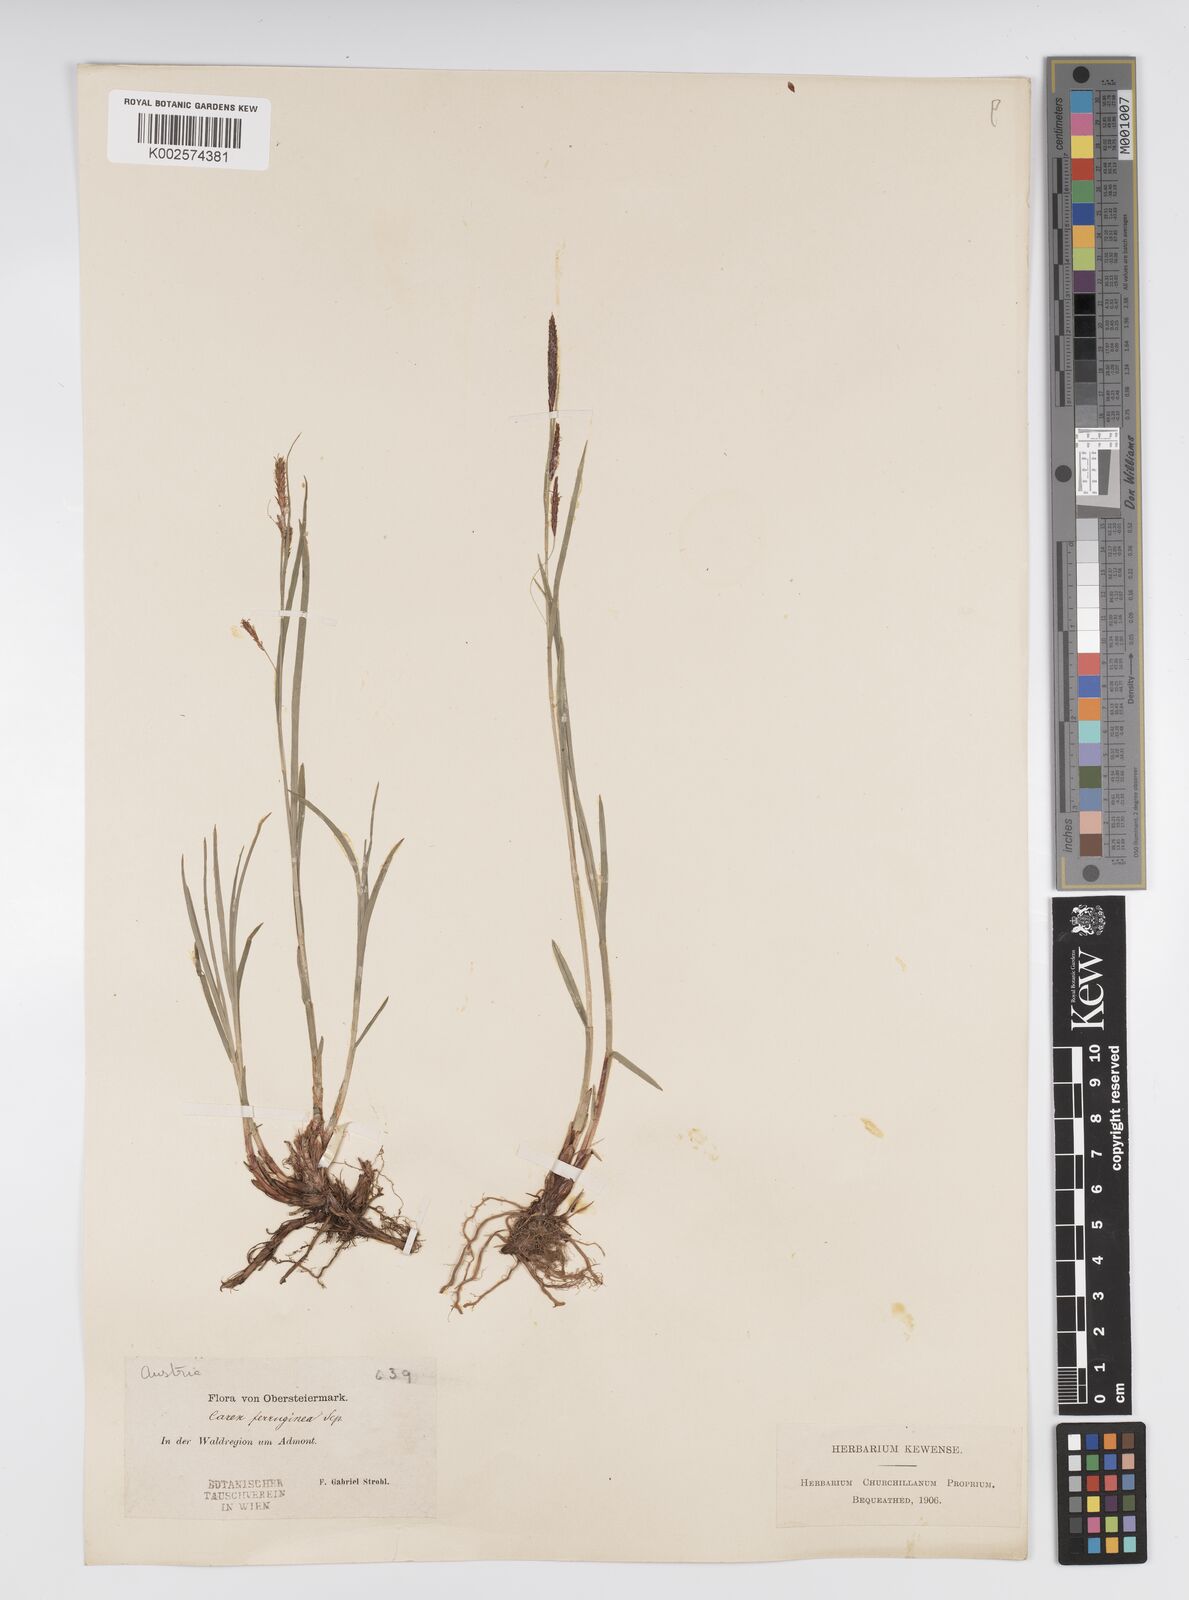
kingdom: Plantae
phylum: Tracheophyta
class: Liliopsida
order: Poales
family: Cyperaceae
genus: Carex
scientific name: Carex firma
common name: Dwarf pillow sedge
